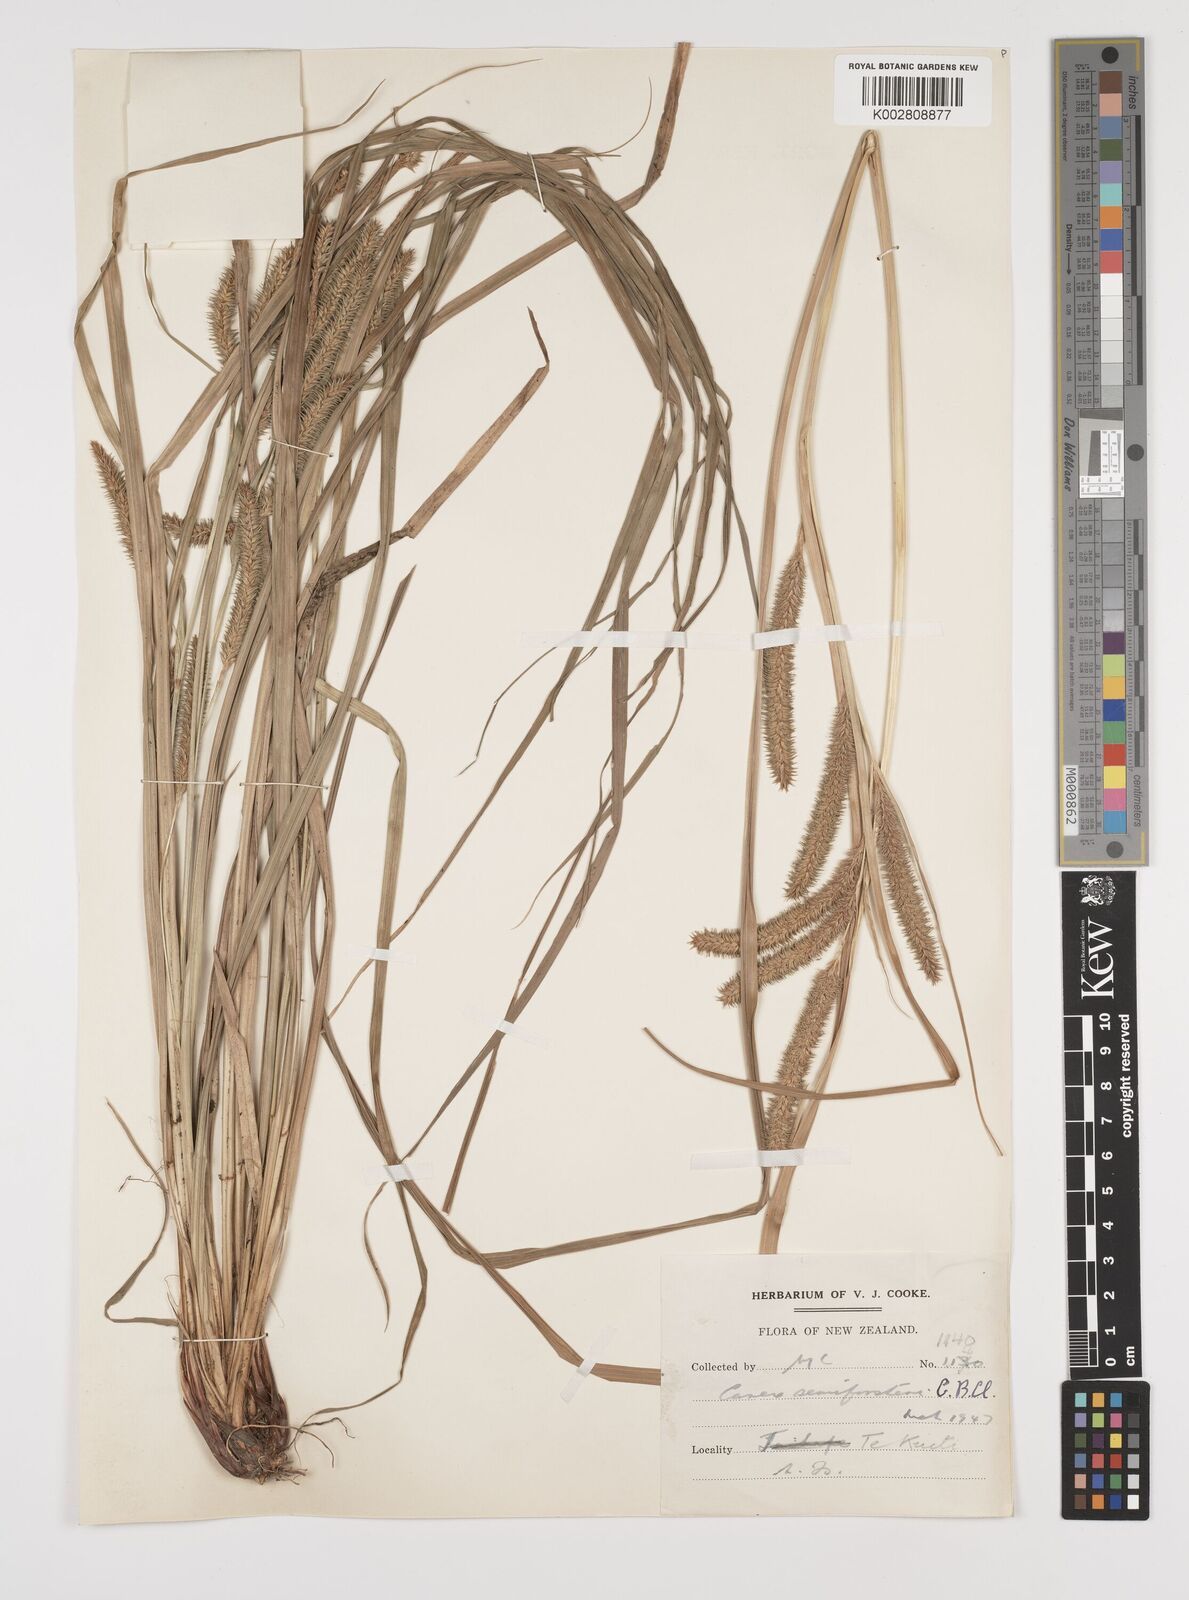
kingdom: Plantae
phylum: Tracheophyta
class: Liliopsida
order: Poales
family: Cyperaceae
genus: Carex
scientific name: Carex forsteri
